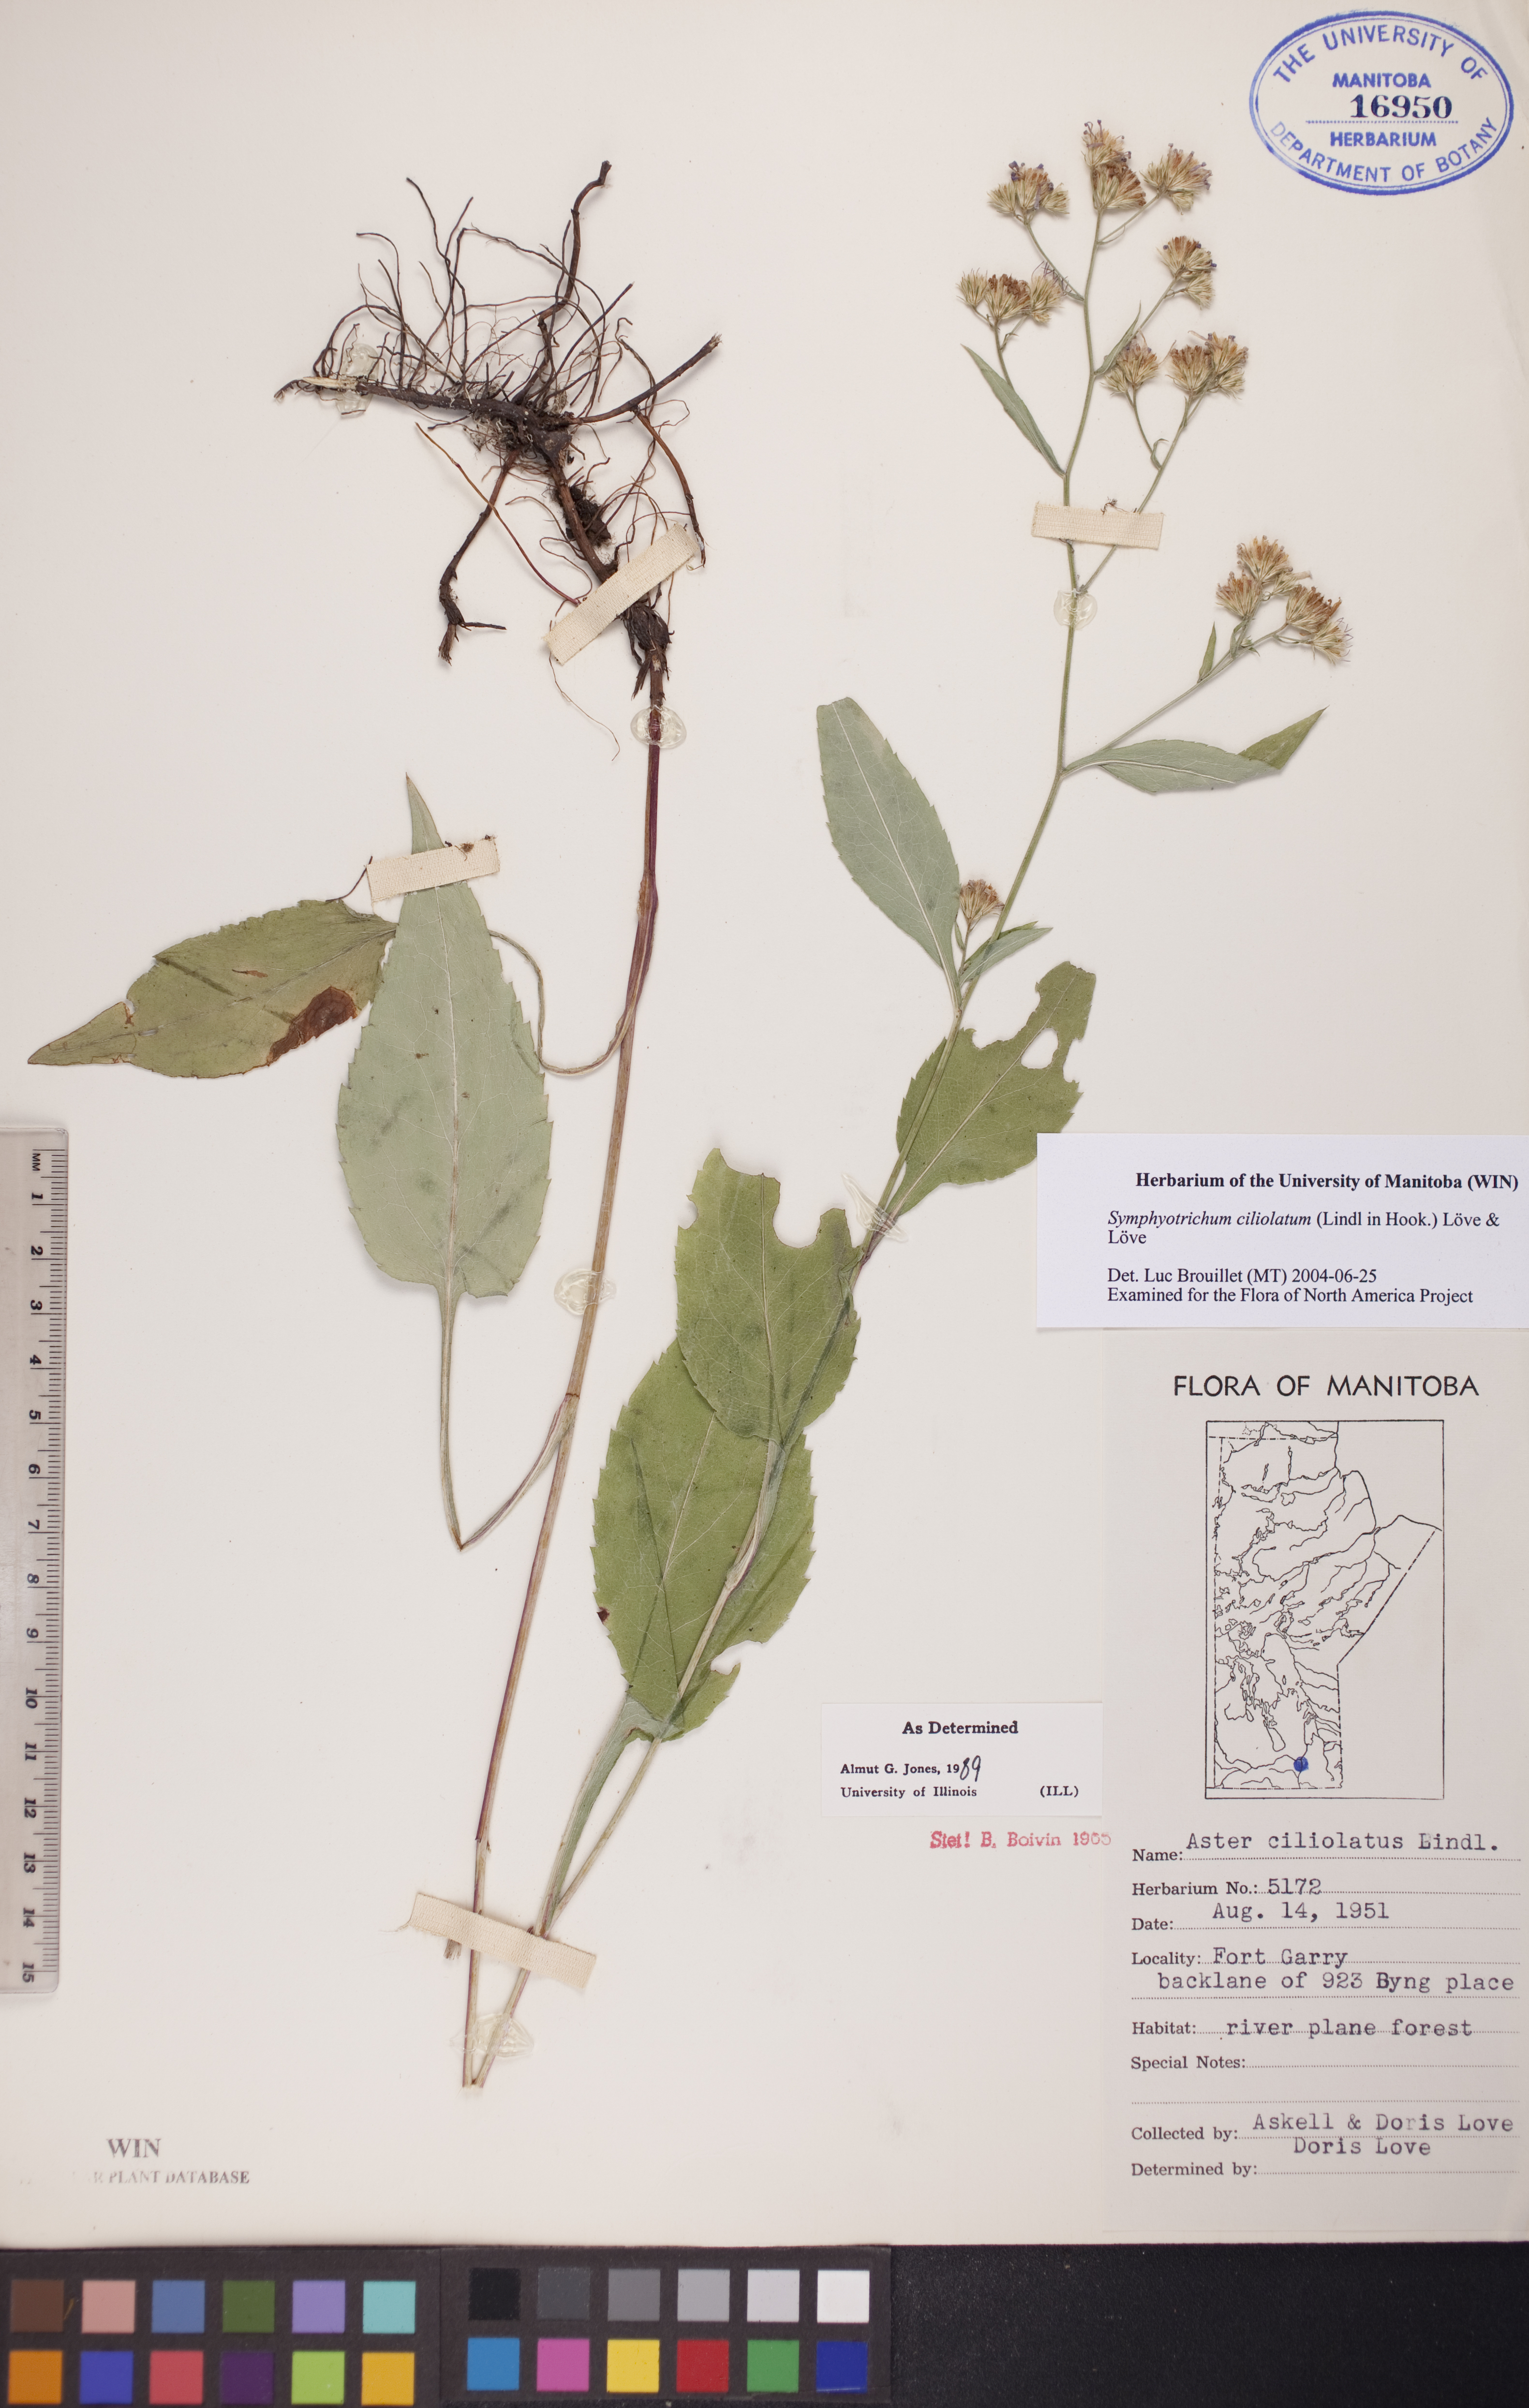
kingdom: Plantae
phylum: Tracheophyta
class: Magnoliopsida
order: Asterales
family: Asteraceae
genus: Symphyotrichum
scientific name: Symphyotrichum ciliolatum
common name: Fringed blue aster
